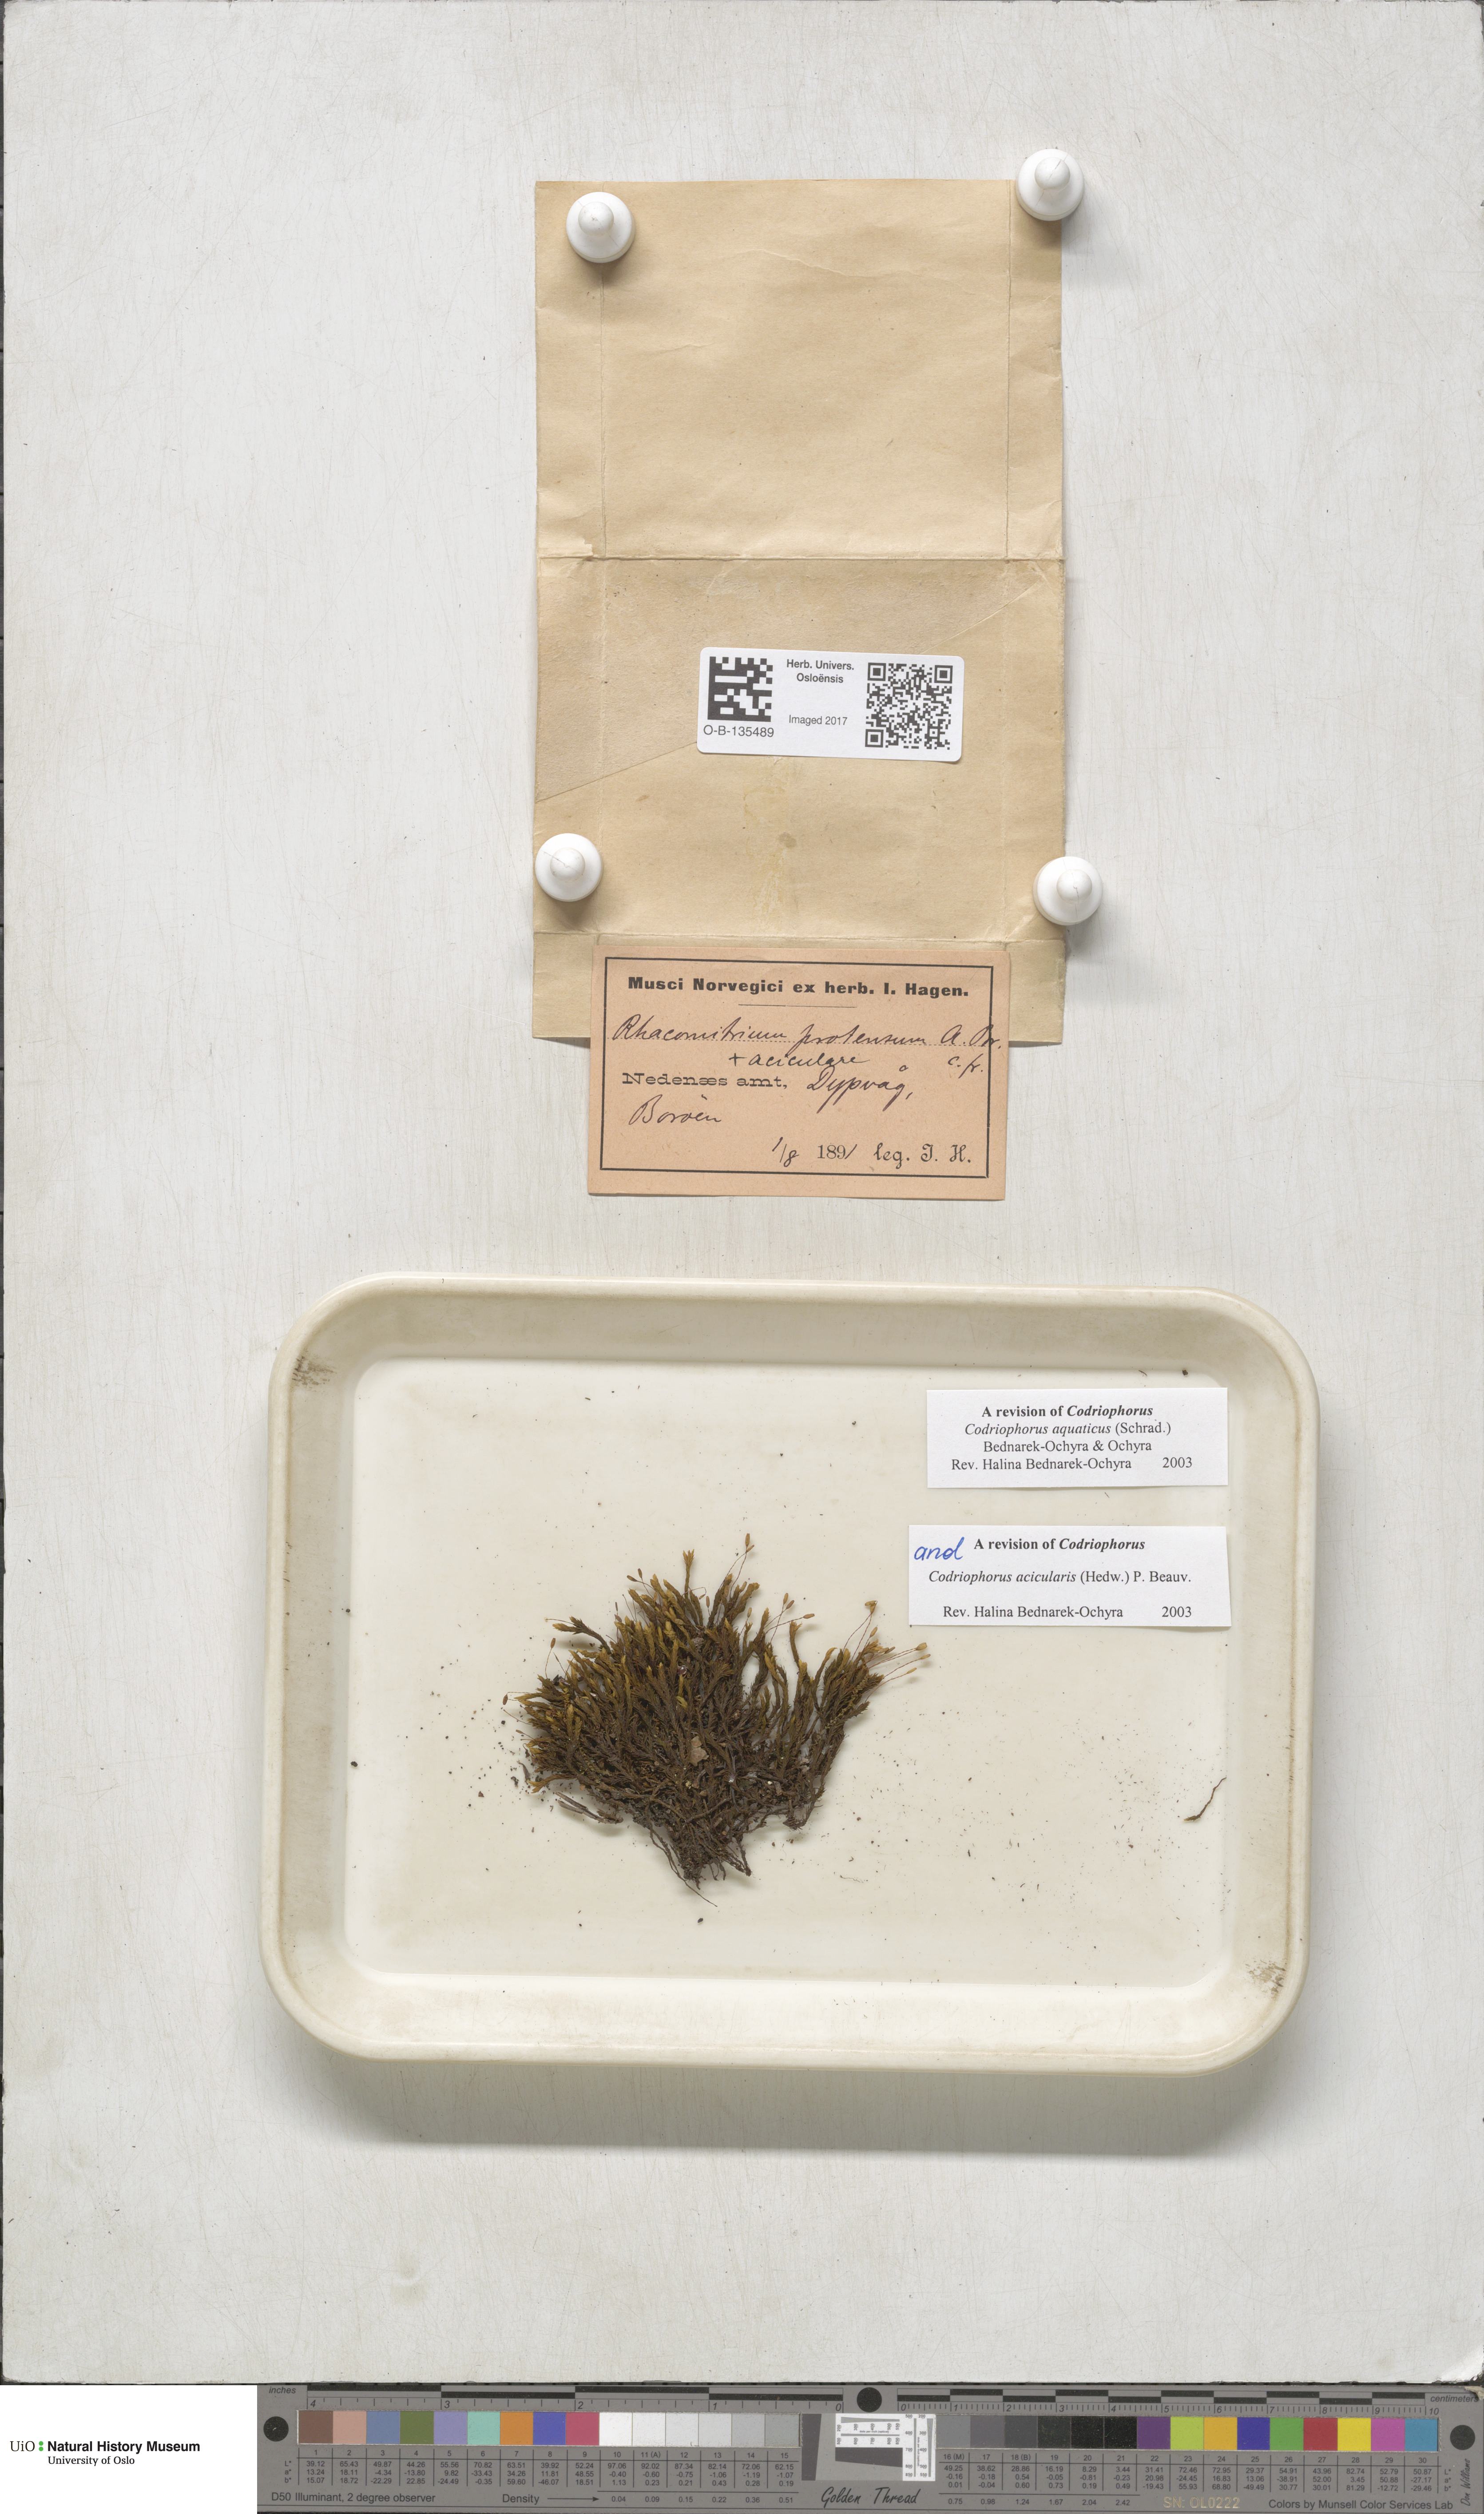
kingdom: Plantae
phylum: Bryophyta
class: Bryopsida
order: Grimmiales
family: Grimmiaceae
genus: Codriophorus
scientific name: Codriophorus aquaticus
